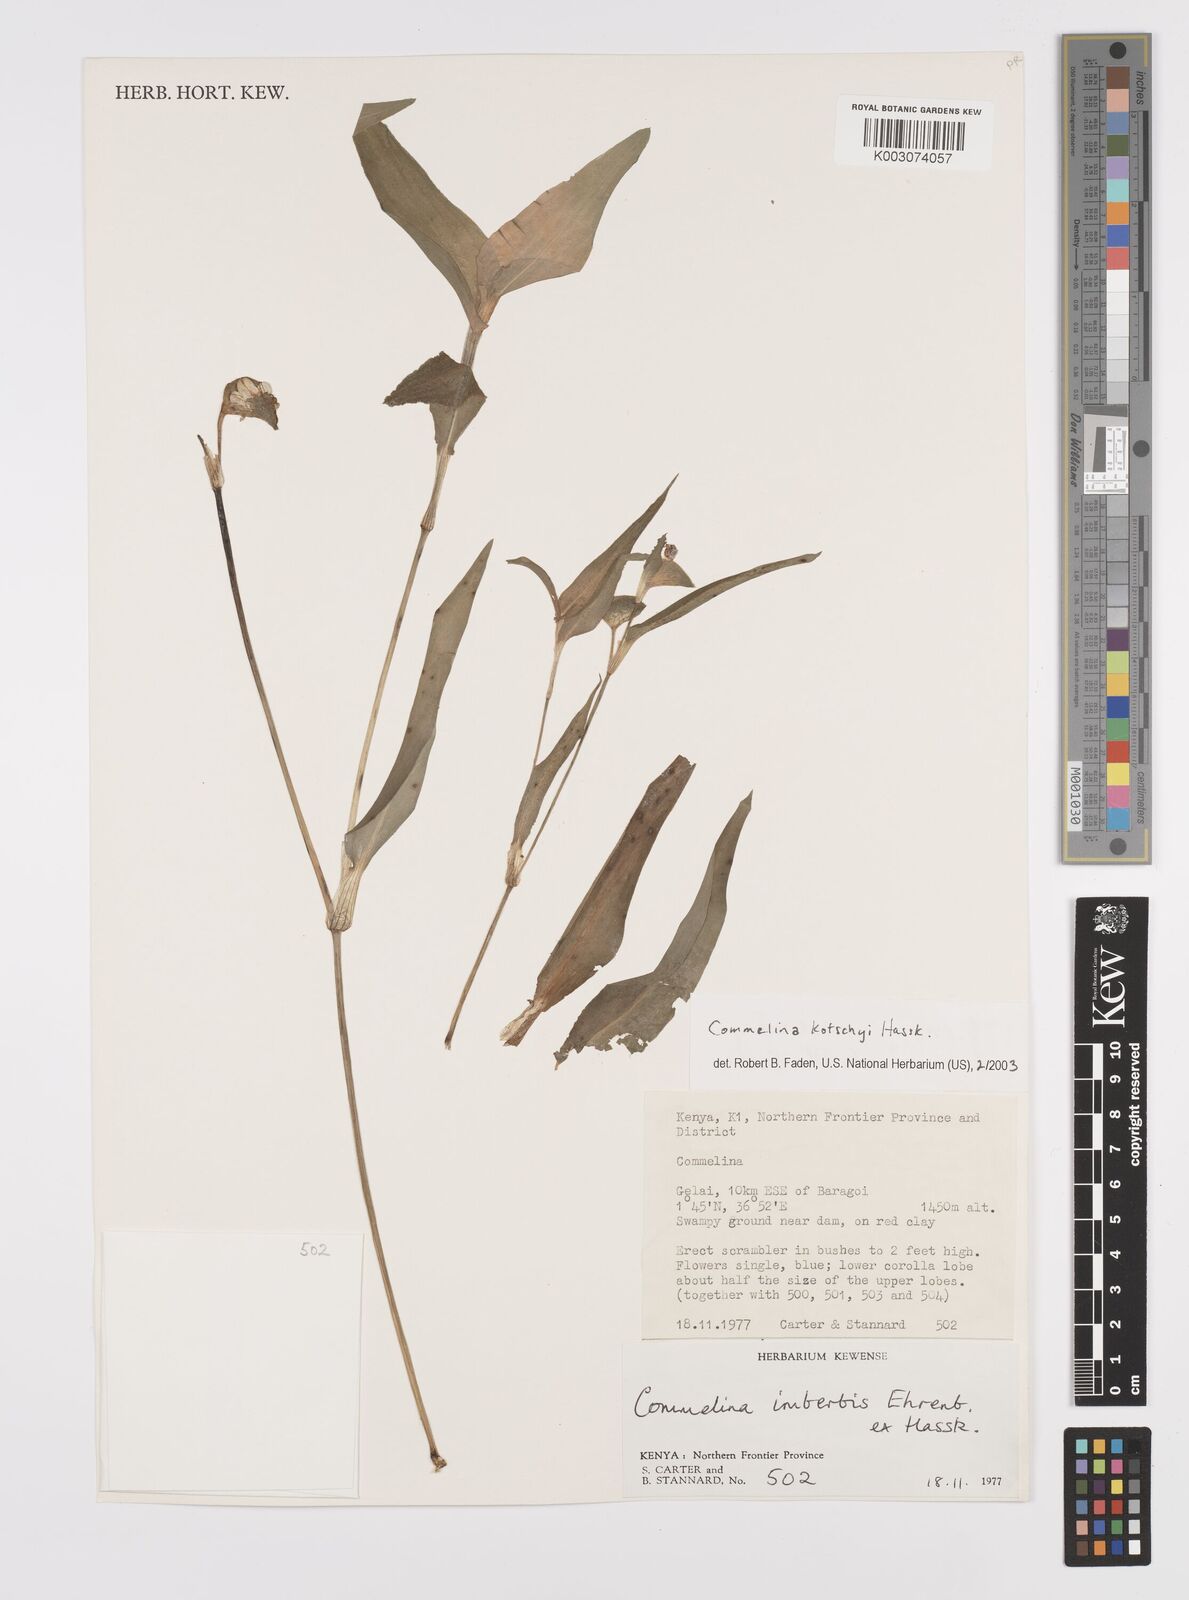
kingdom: Plantae
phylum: Tracheophyta
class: Liliopsida
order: Commelinales
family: Commelinaceae
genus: Commelina
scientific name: Commelina kotschyi
